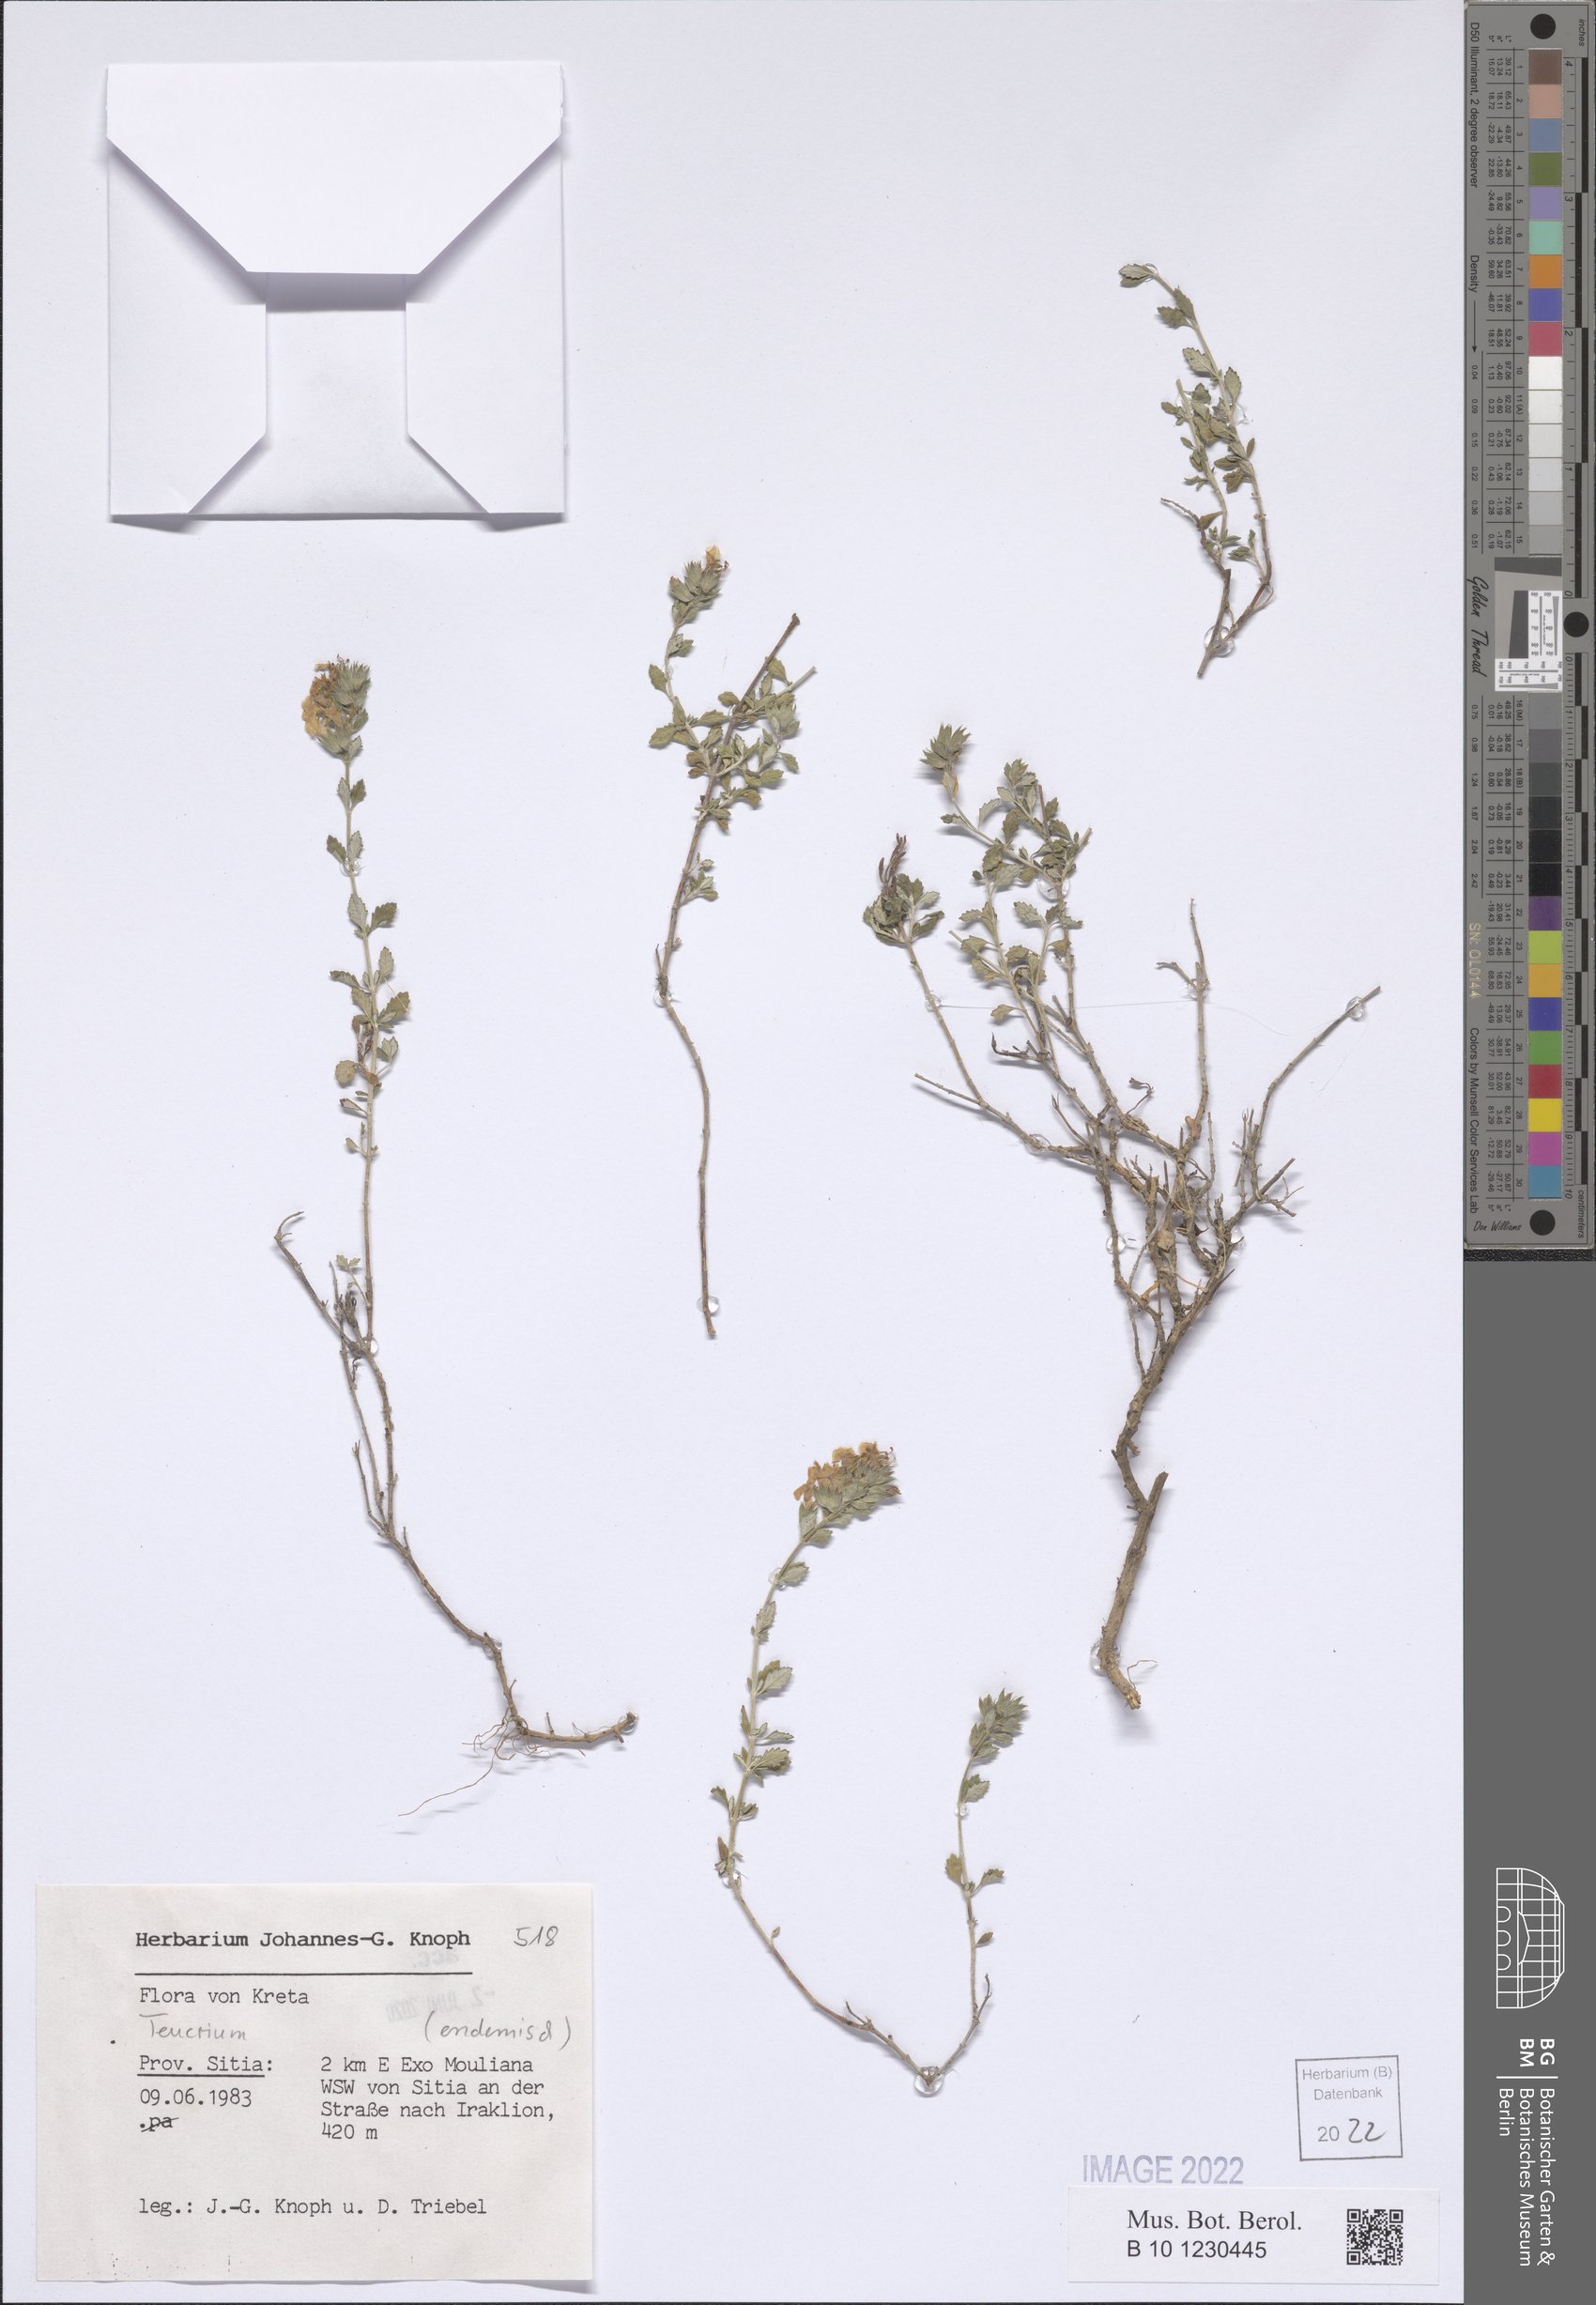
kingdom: Plantae
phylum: Tracheophyta
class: Magnoliopsida
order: Lamiales
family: Lamiaceae
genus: Teucrium
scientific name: Teucrium
